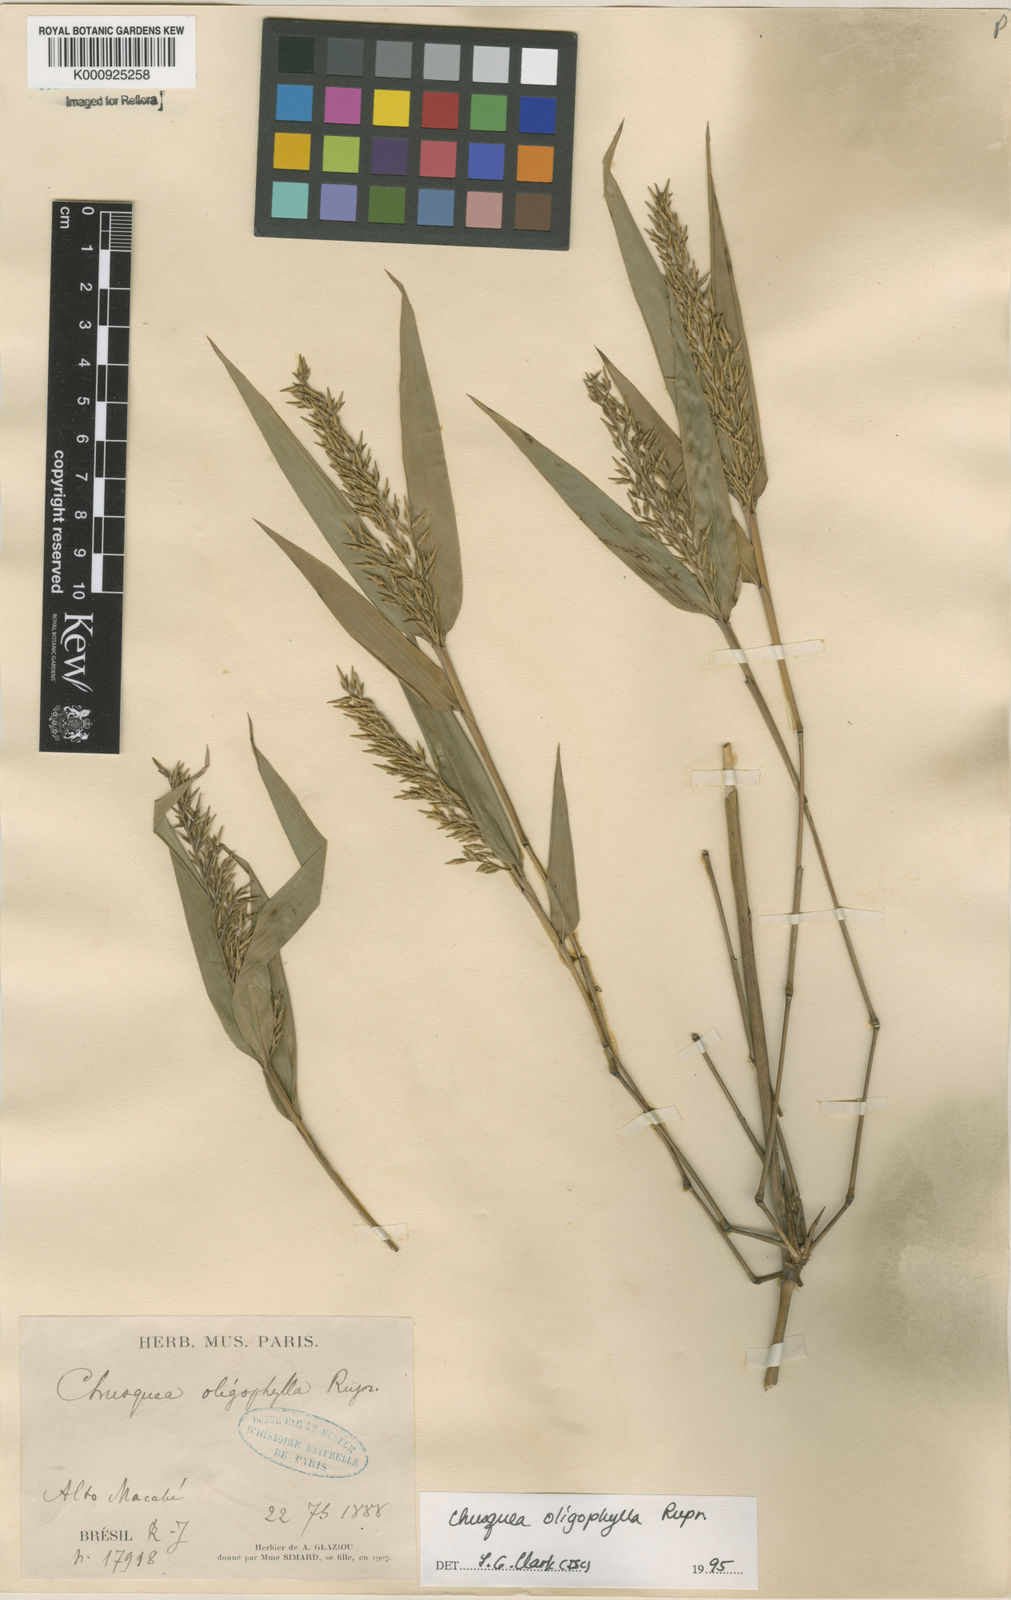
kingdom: Plantae
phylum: Tracheophyta
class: Liliopsida
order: Poales
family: Poaceae
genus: Chusquea
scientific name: Chusquea oligophylla
